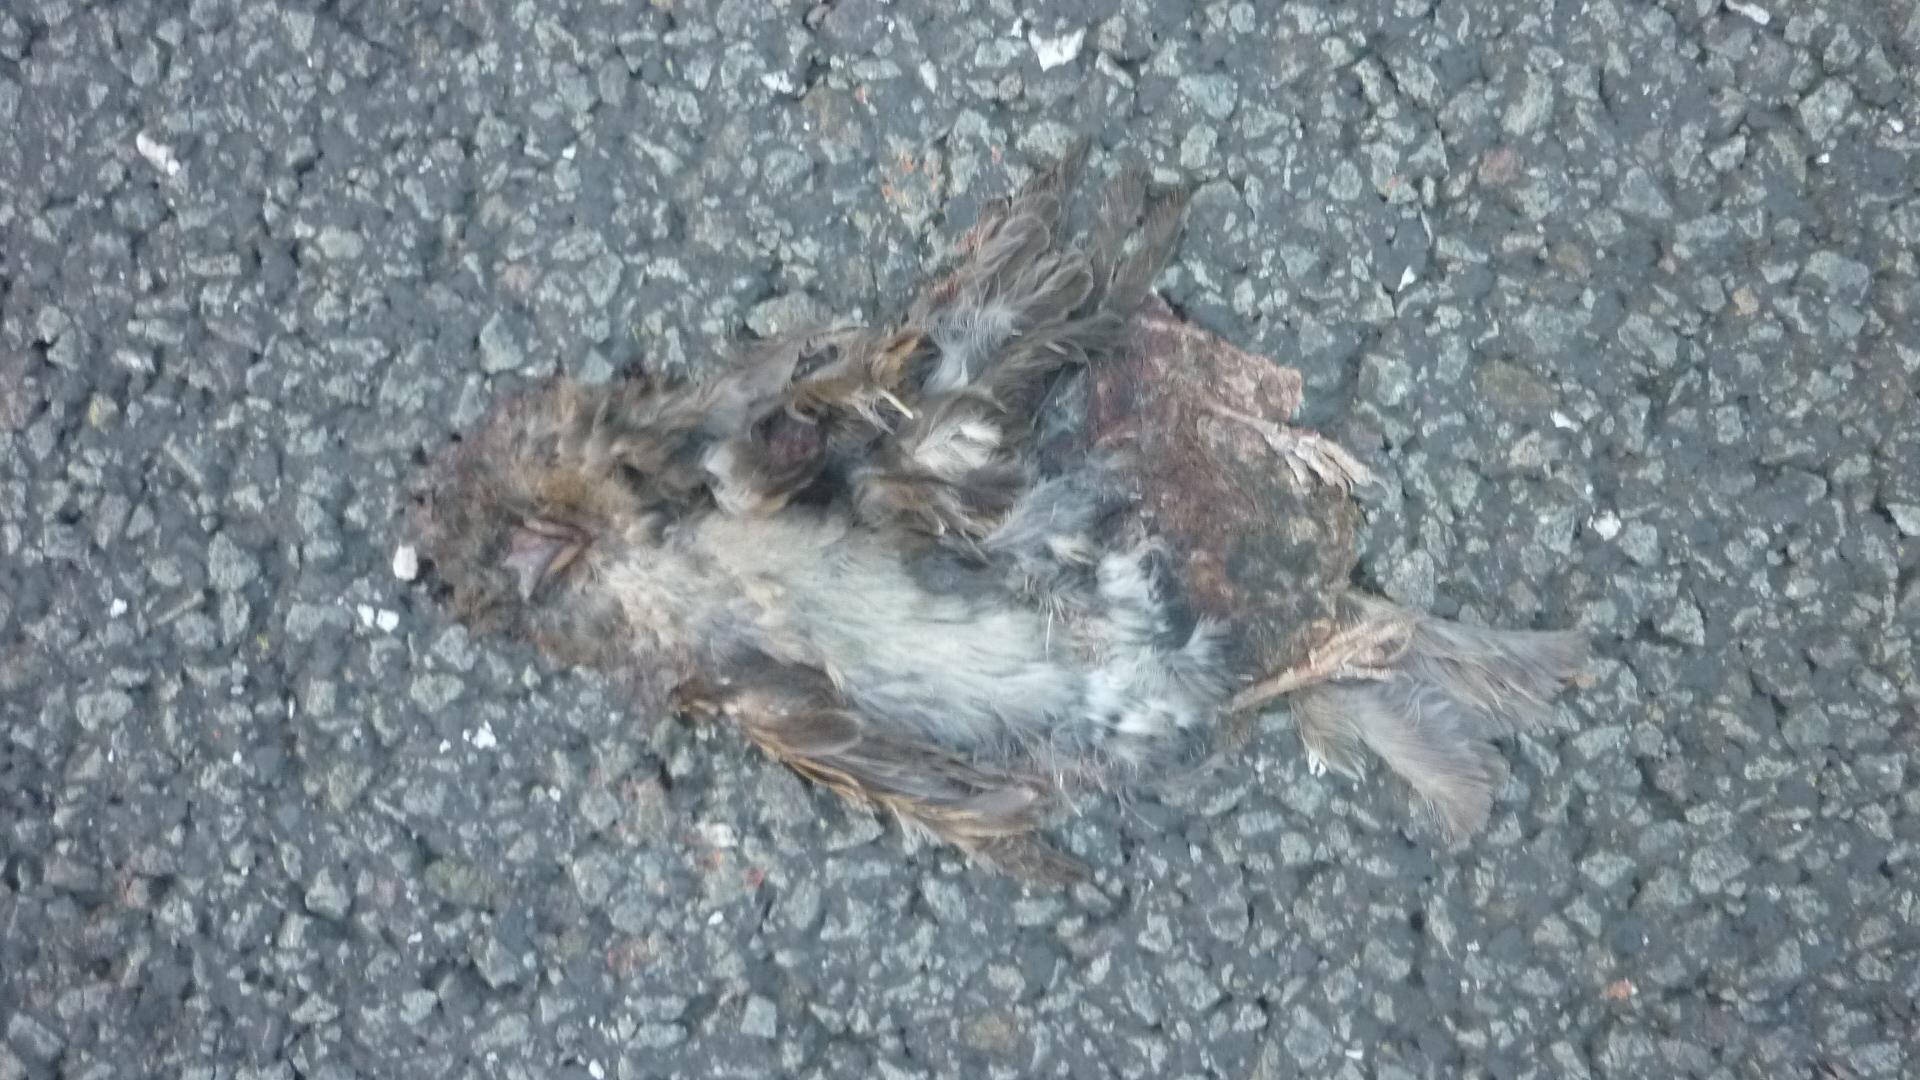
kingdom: Animalia
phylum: Chordata
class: Aves
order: Passeriformes
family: Passeridae
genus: Passer
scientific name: Passer
